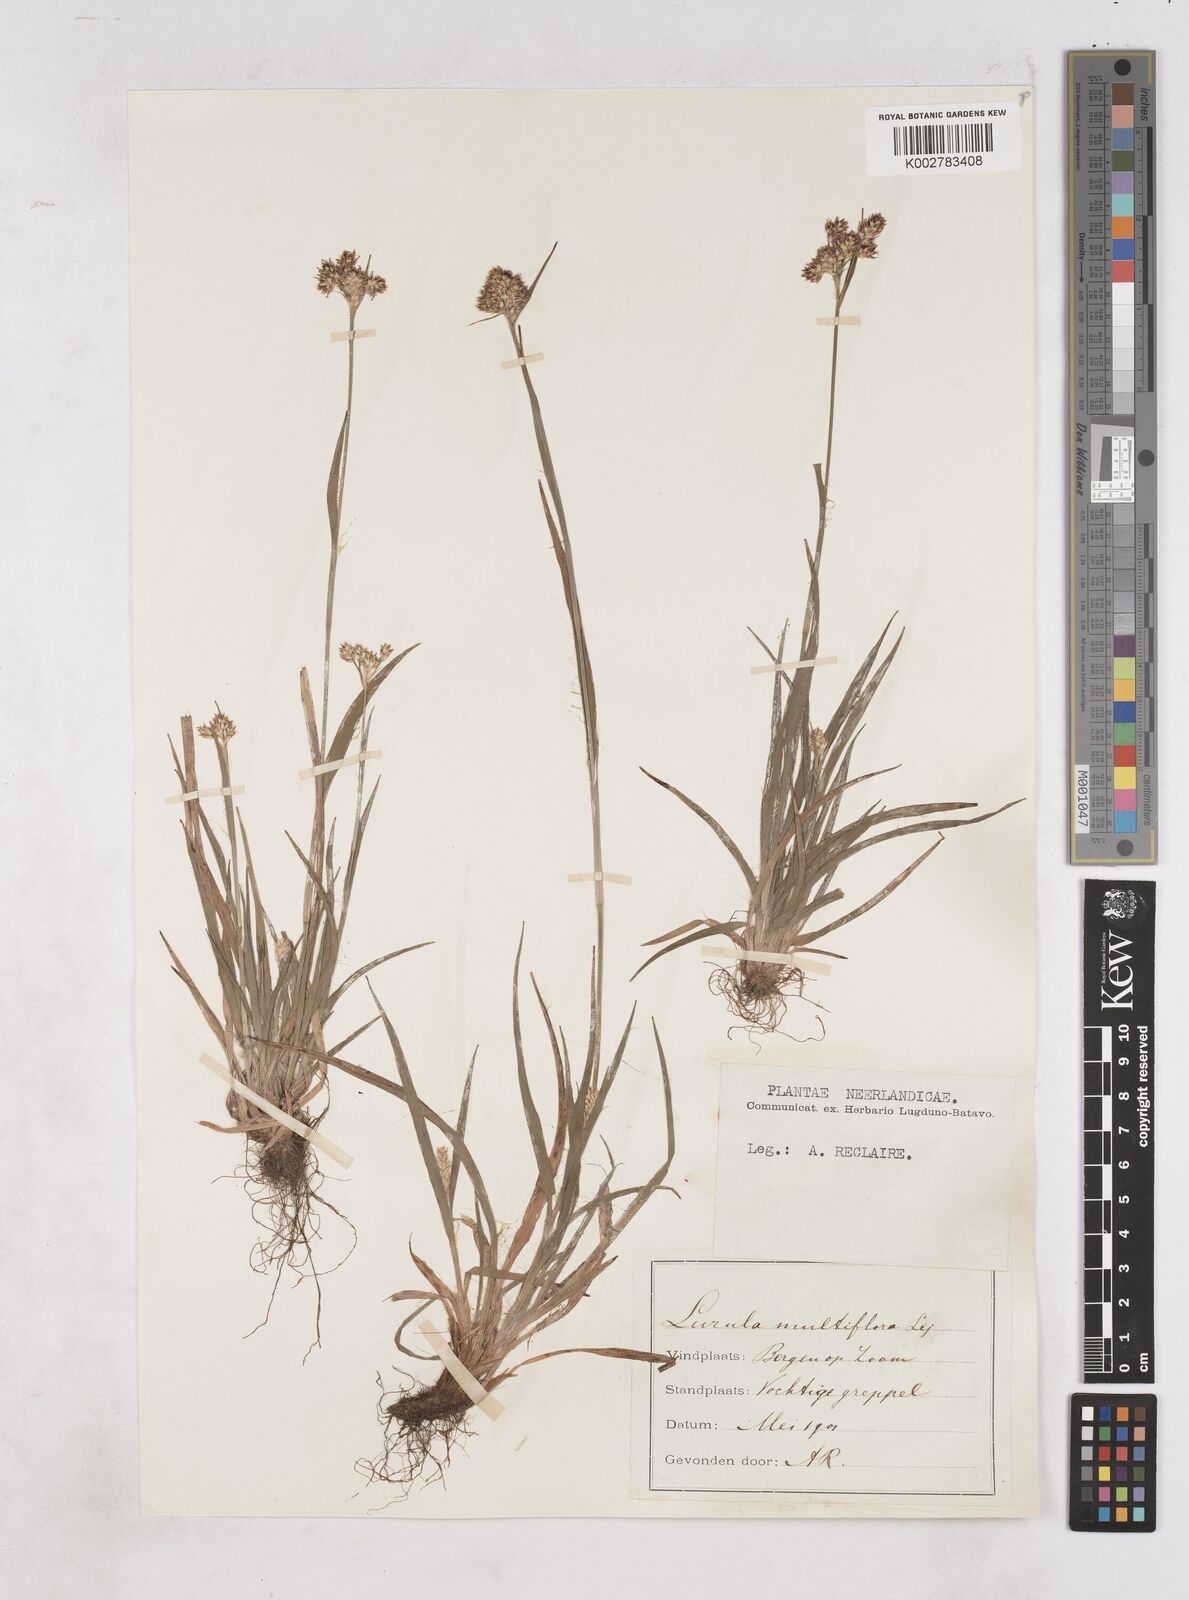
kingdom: Plantae
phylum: Tracheophyta
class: Liliopsida
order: Poales
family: Juncaceae
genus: Luzula
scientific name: Luzula multiflora
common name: Heath wood-rush
